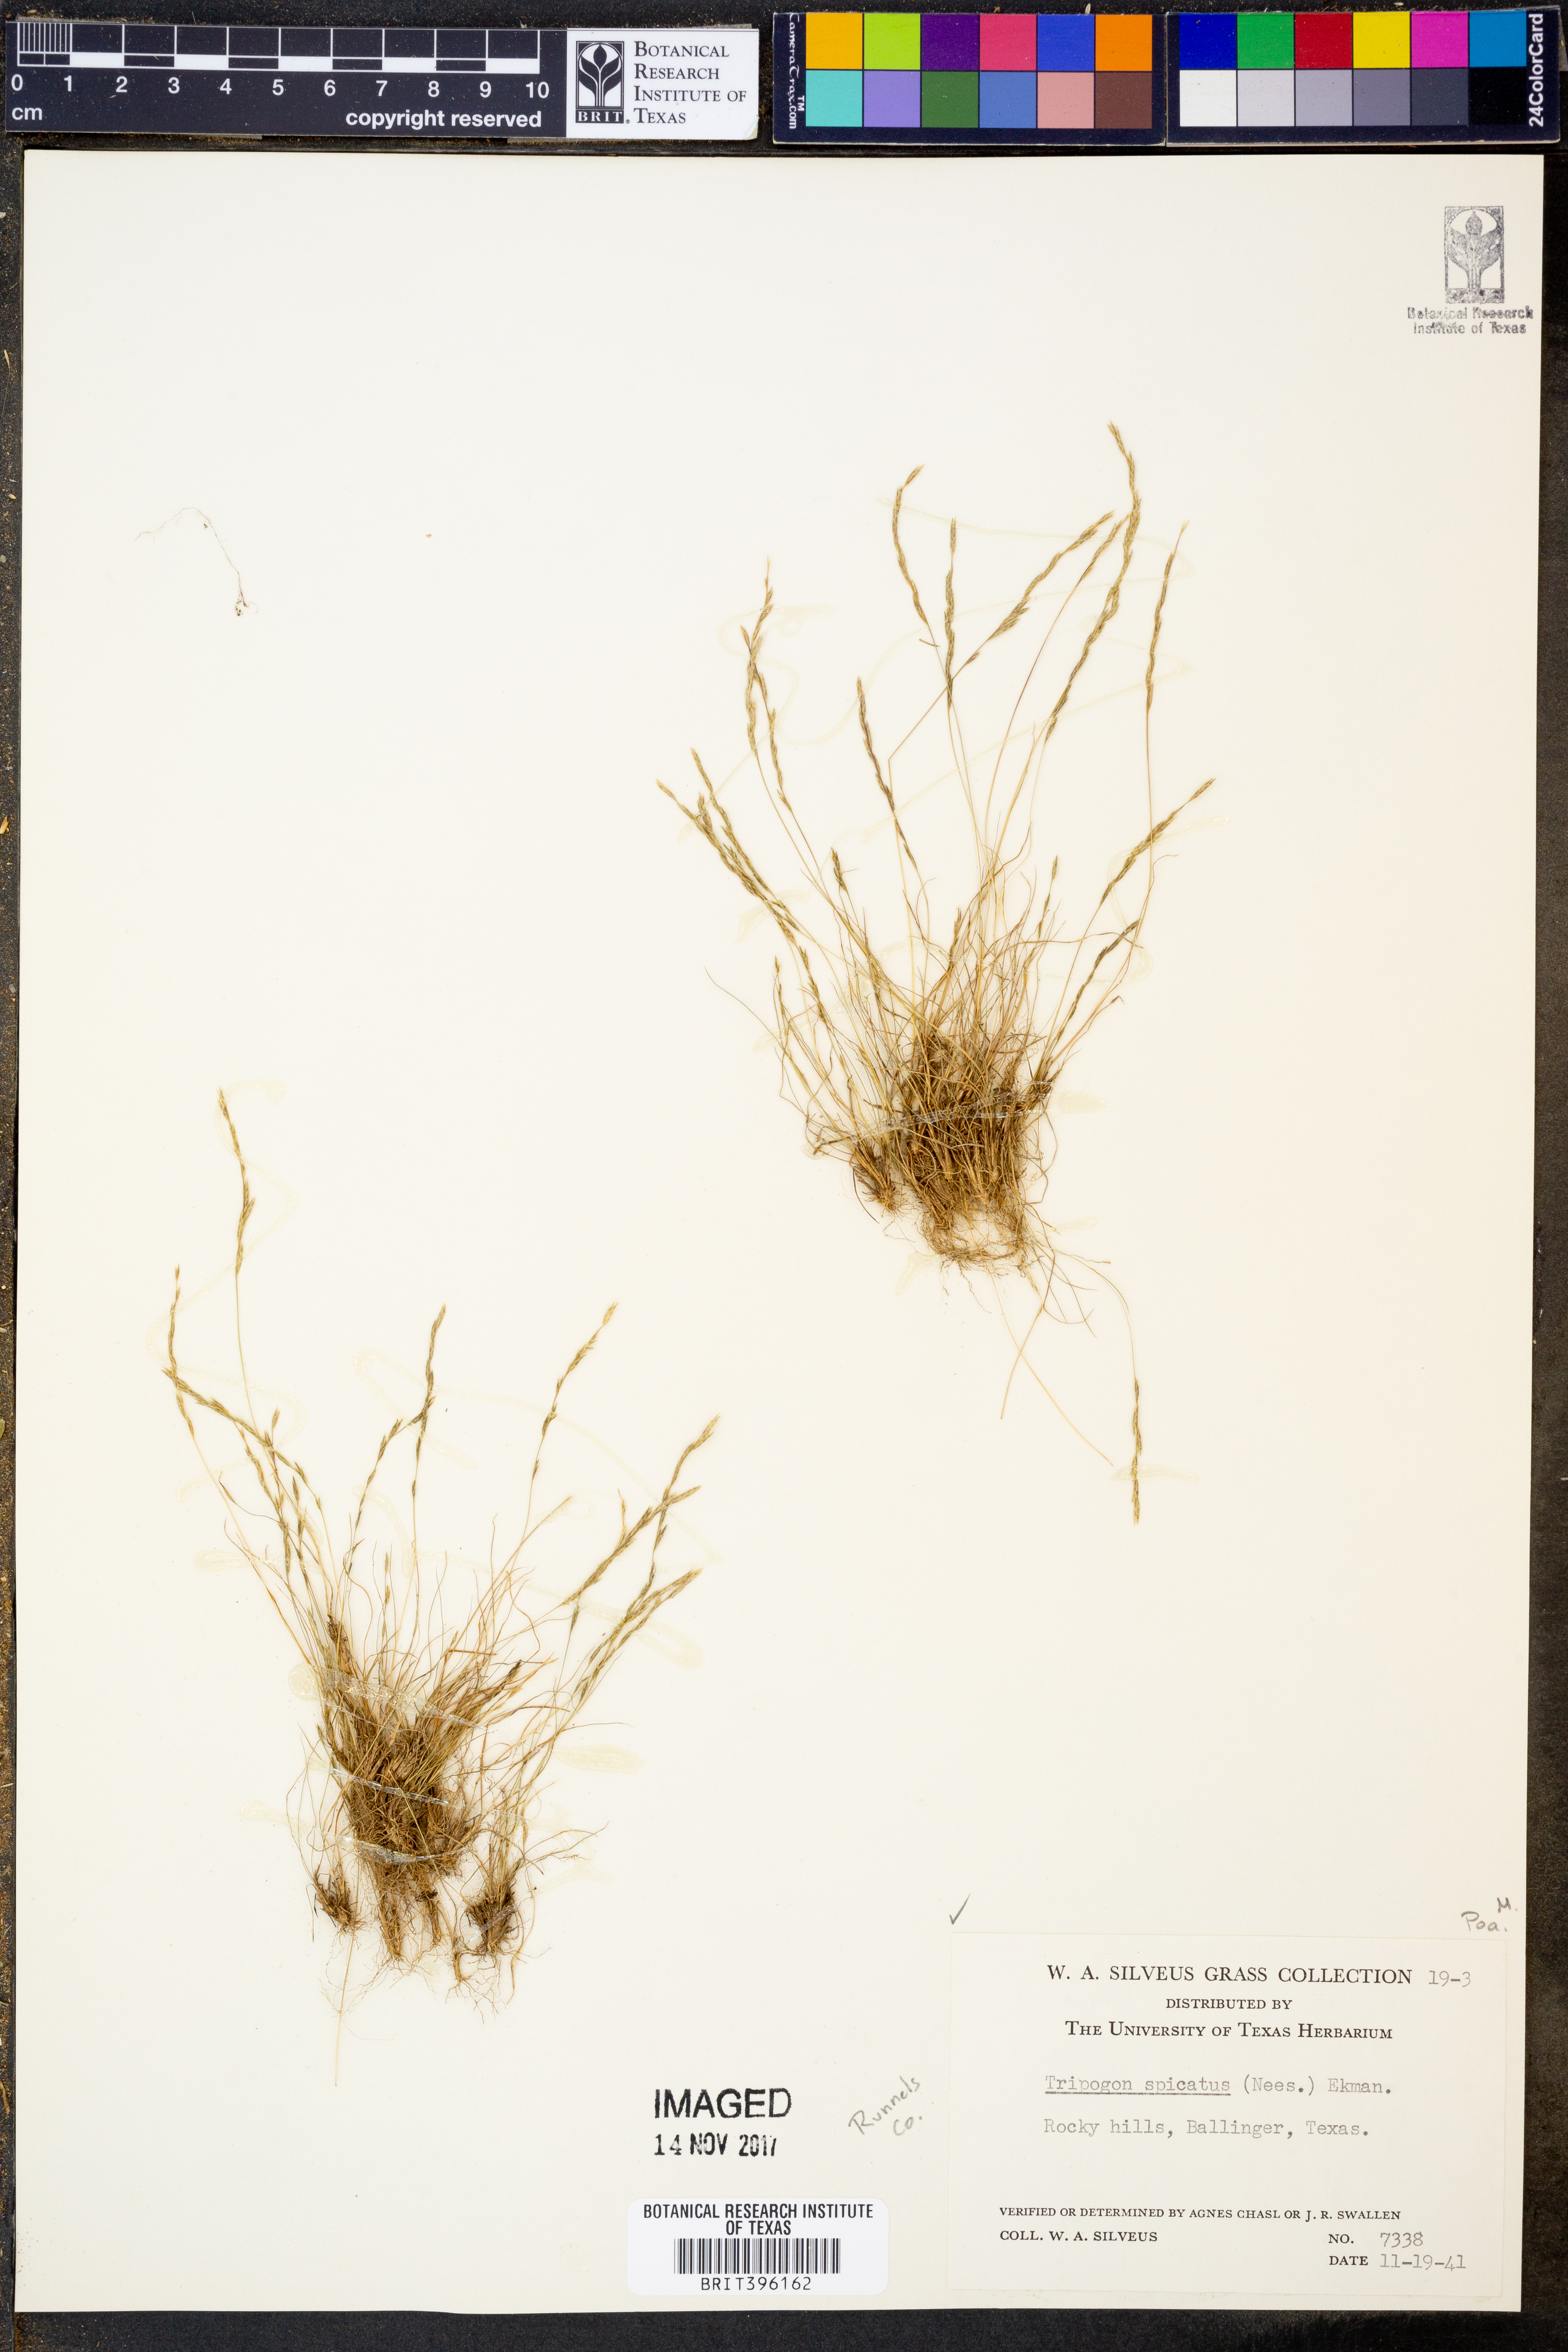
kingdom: Plantae
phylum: Tracheophyta
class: Liliopsida
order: Poales
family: Poaceae
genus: Tripogonella
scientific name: Tripogonella spicata
